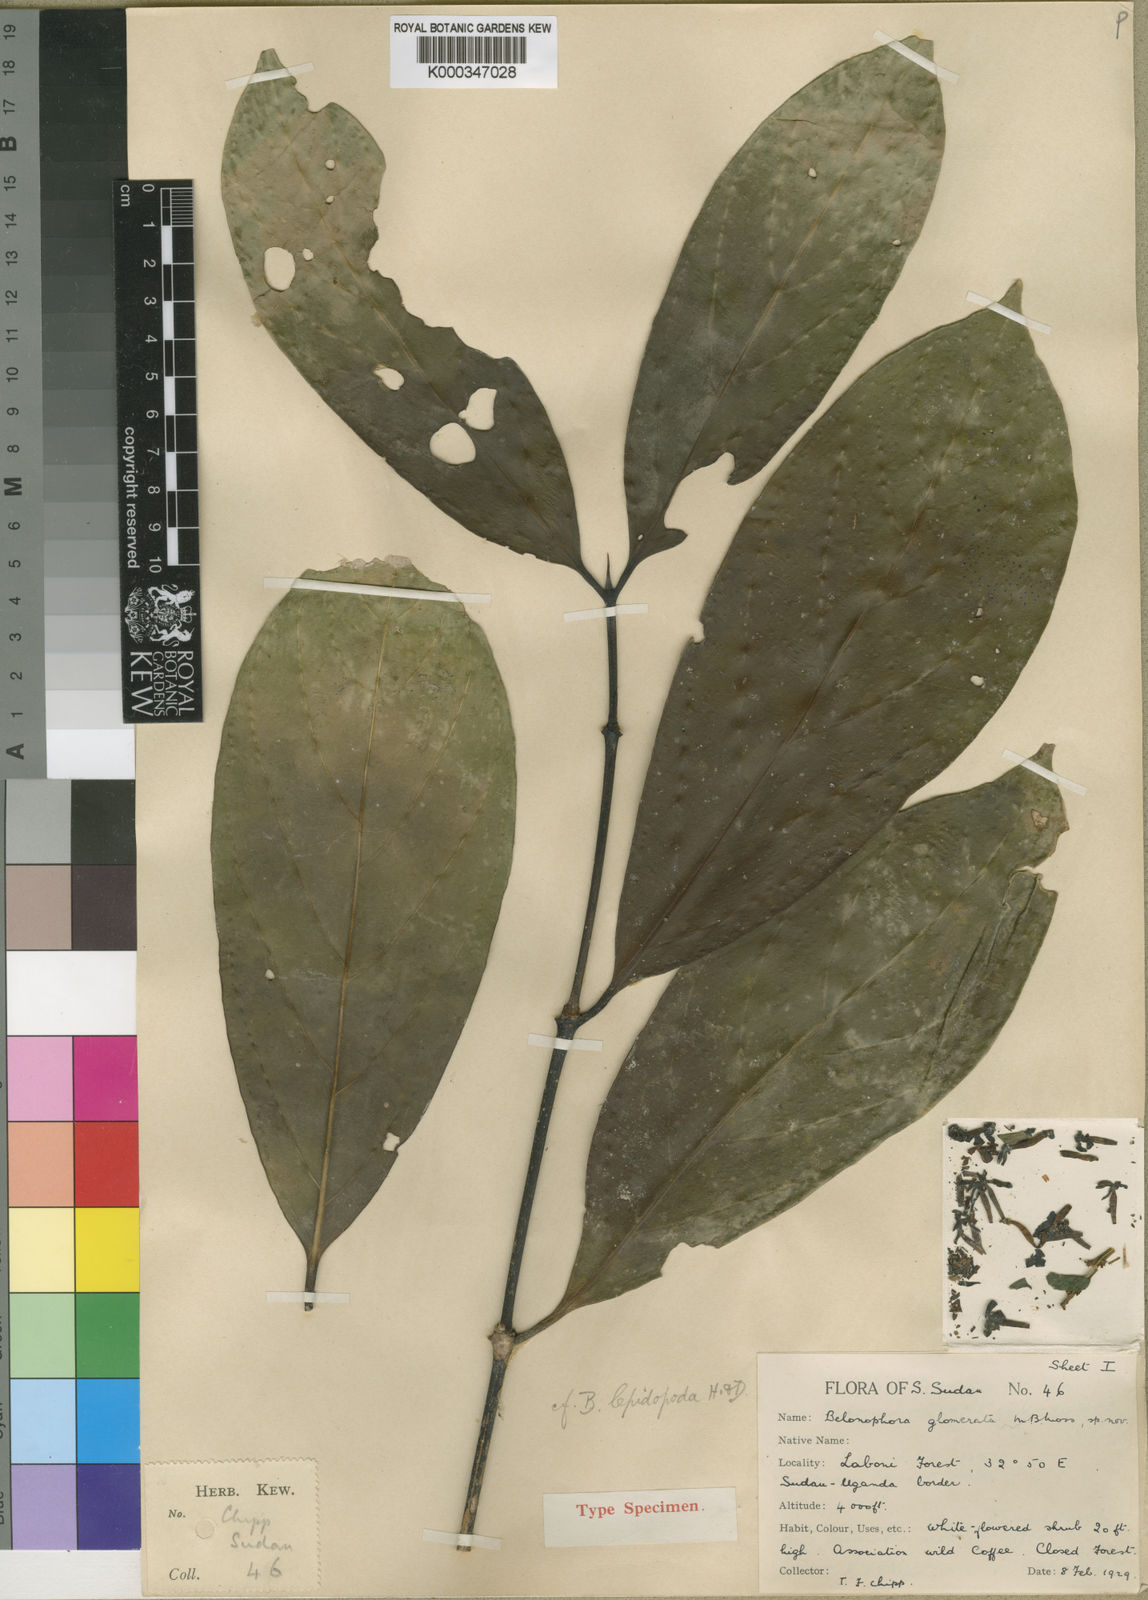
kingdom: Plantae
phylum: Tracheophyta
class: Magnoliopsida
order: Gentianales
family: Rubiaceae
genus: Belonophora
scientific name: Belonophora coffeoides
